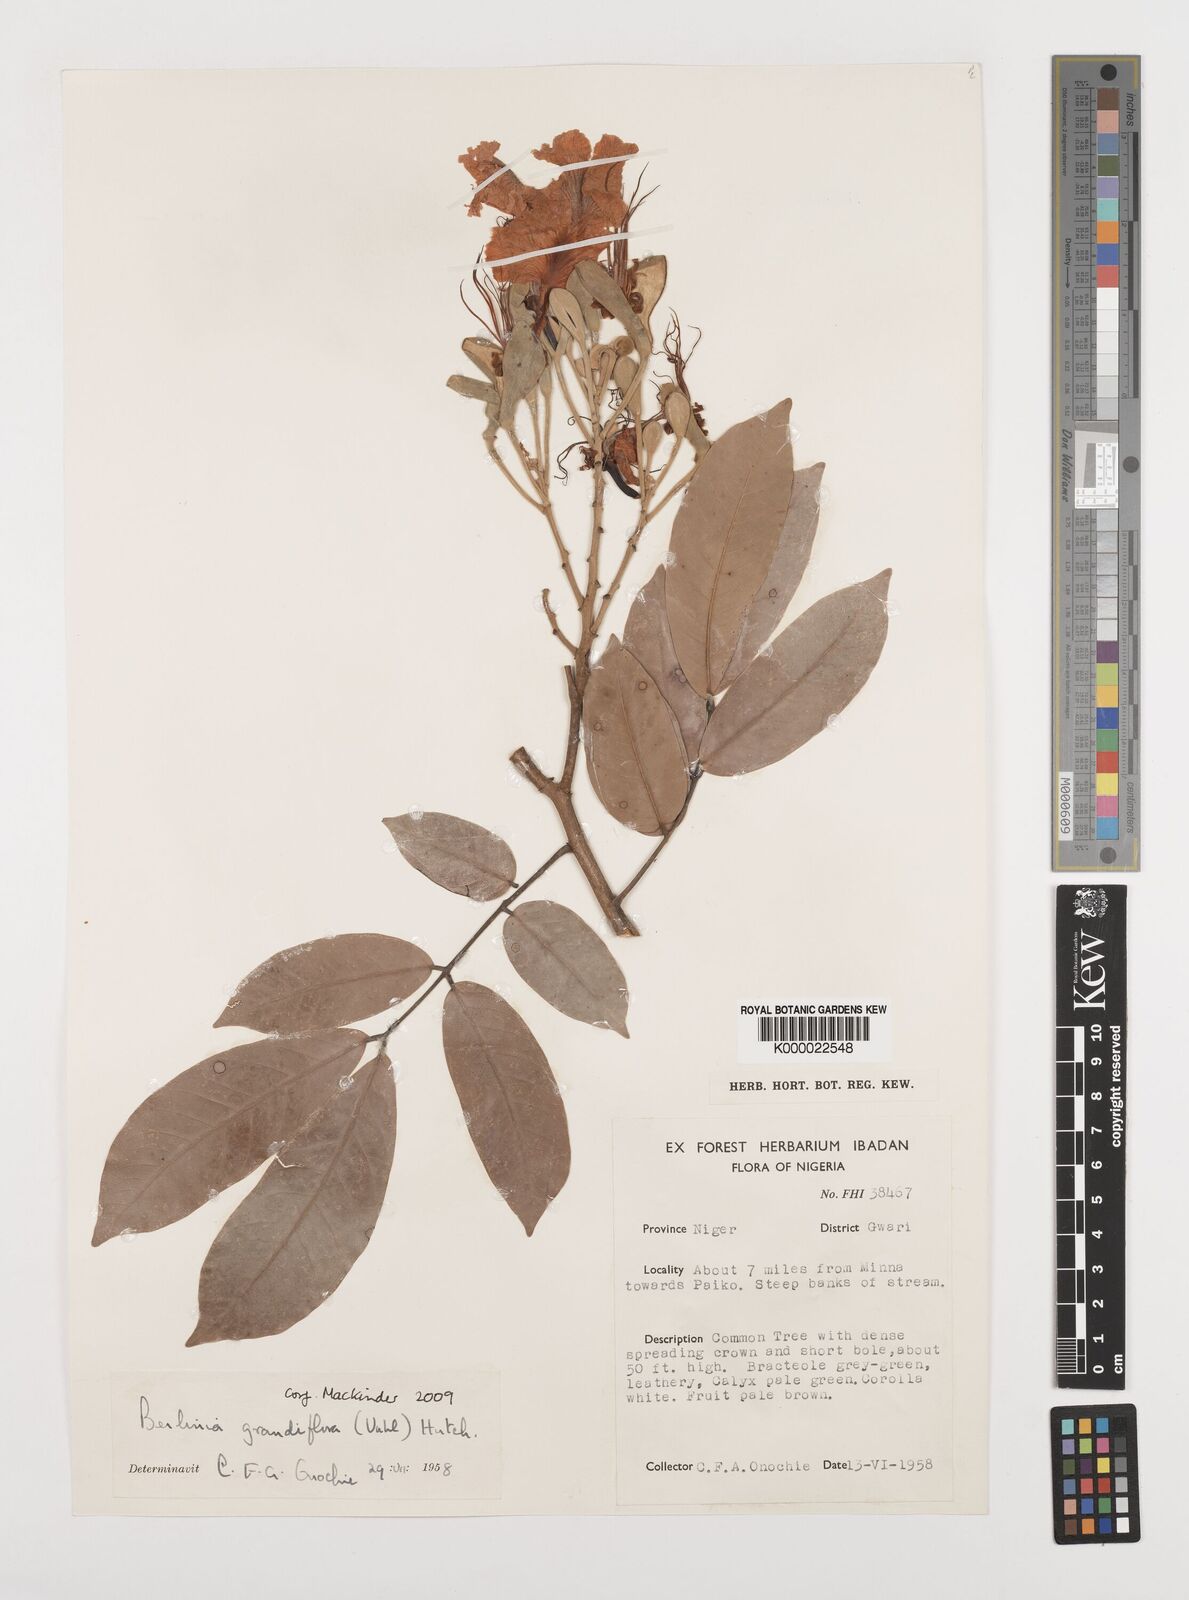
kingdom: Plantae
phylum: Tracheophyta
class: Magnoliopsida
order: Fabales
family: Fabaceae
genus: Berlinia
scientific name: Berlinia grandiflora
